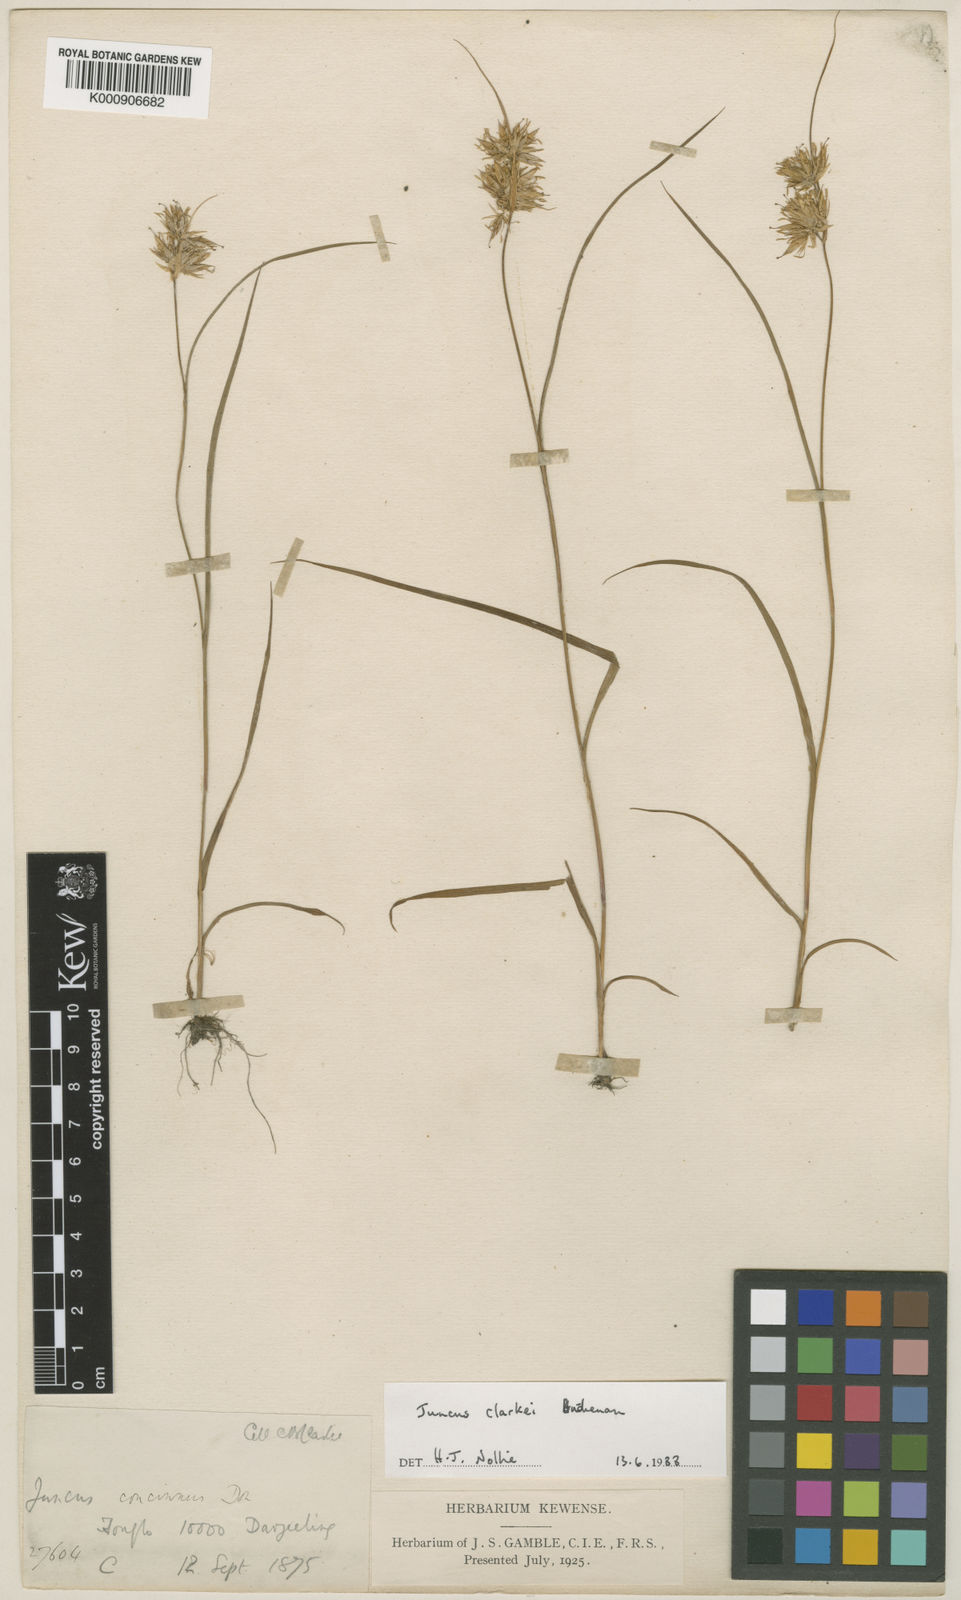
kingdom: Plantae
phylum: Tracheophyta
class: Liliopsida
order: Poales
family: Juncaceae
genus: Juncus
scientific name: Juncus clarkei
